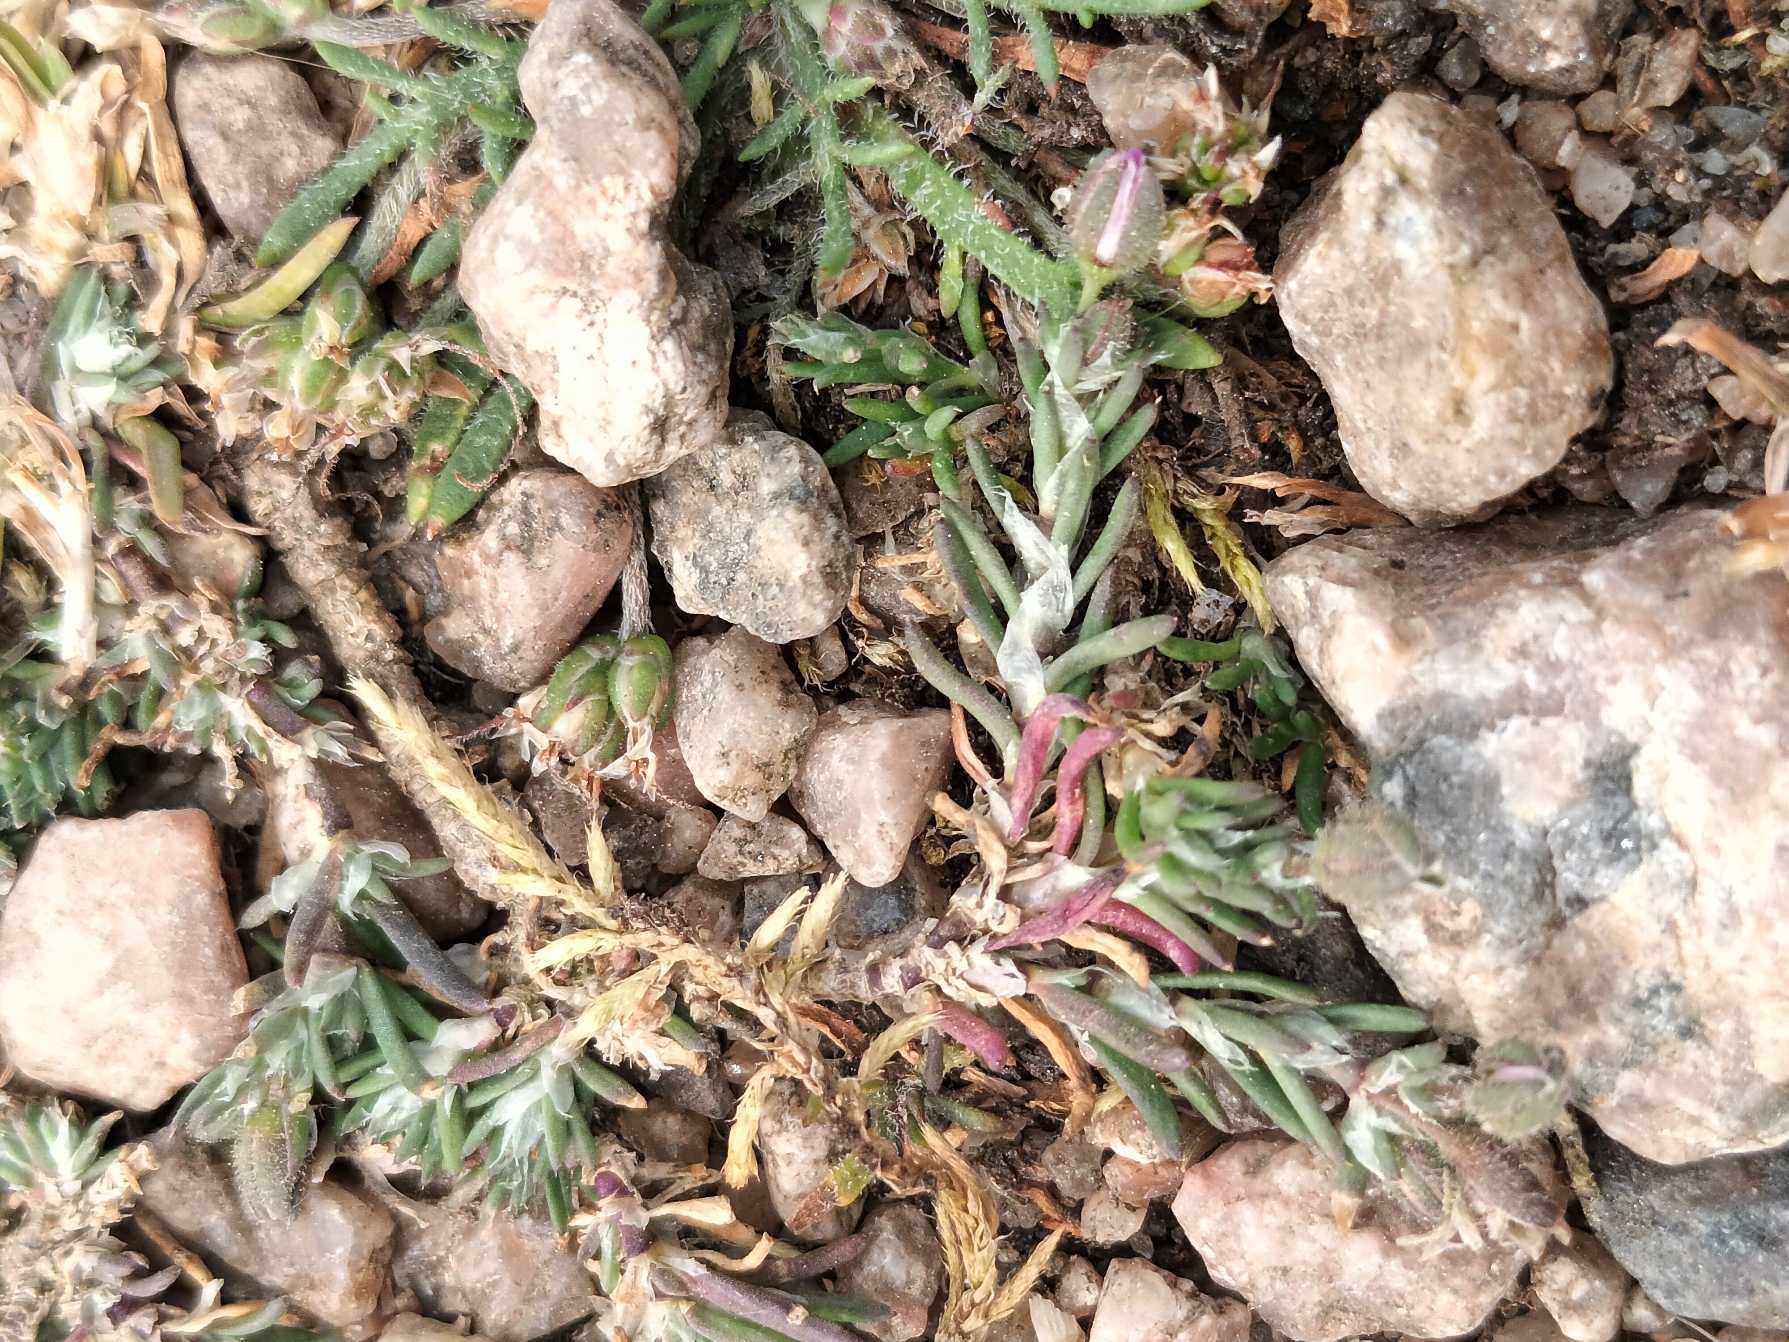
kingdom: Plantae
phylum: Tracheophyta
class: Magnoliopsida
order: Caryophyllales
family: Caryophyllaceae
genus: Spergularia
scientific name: Spergularia rubra
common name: Mark-hindeknæ
